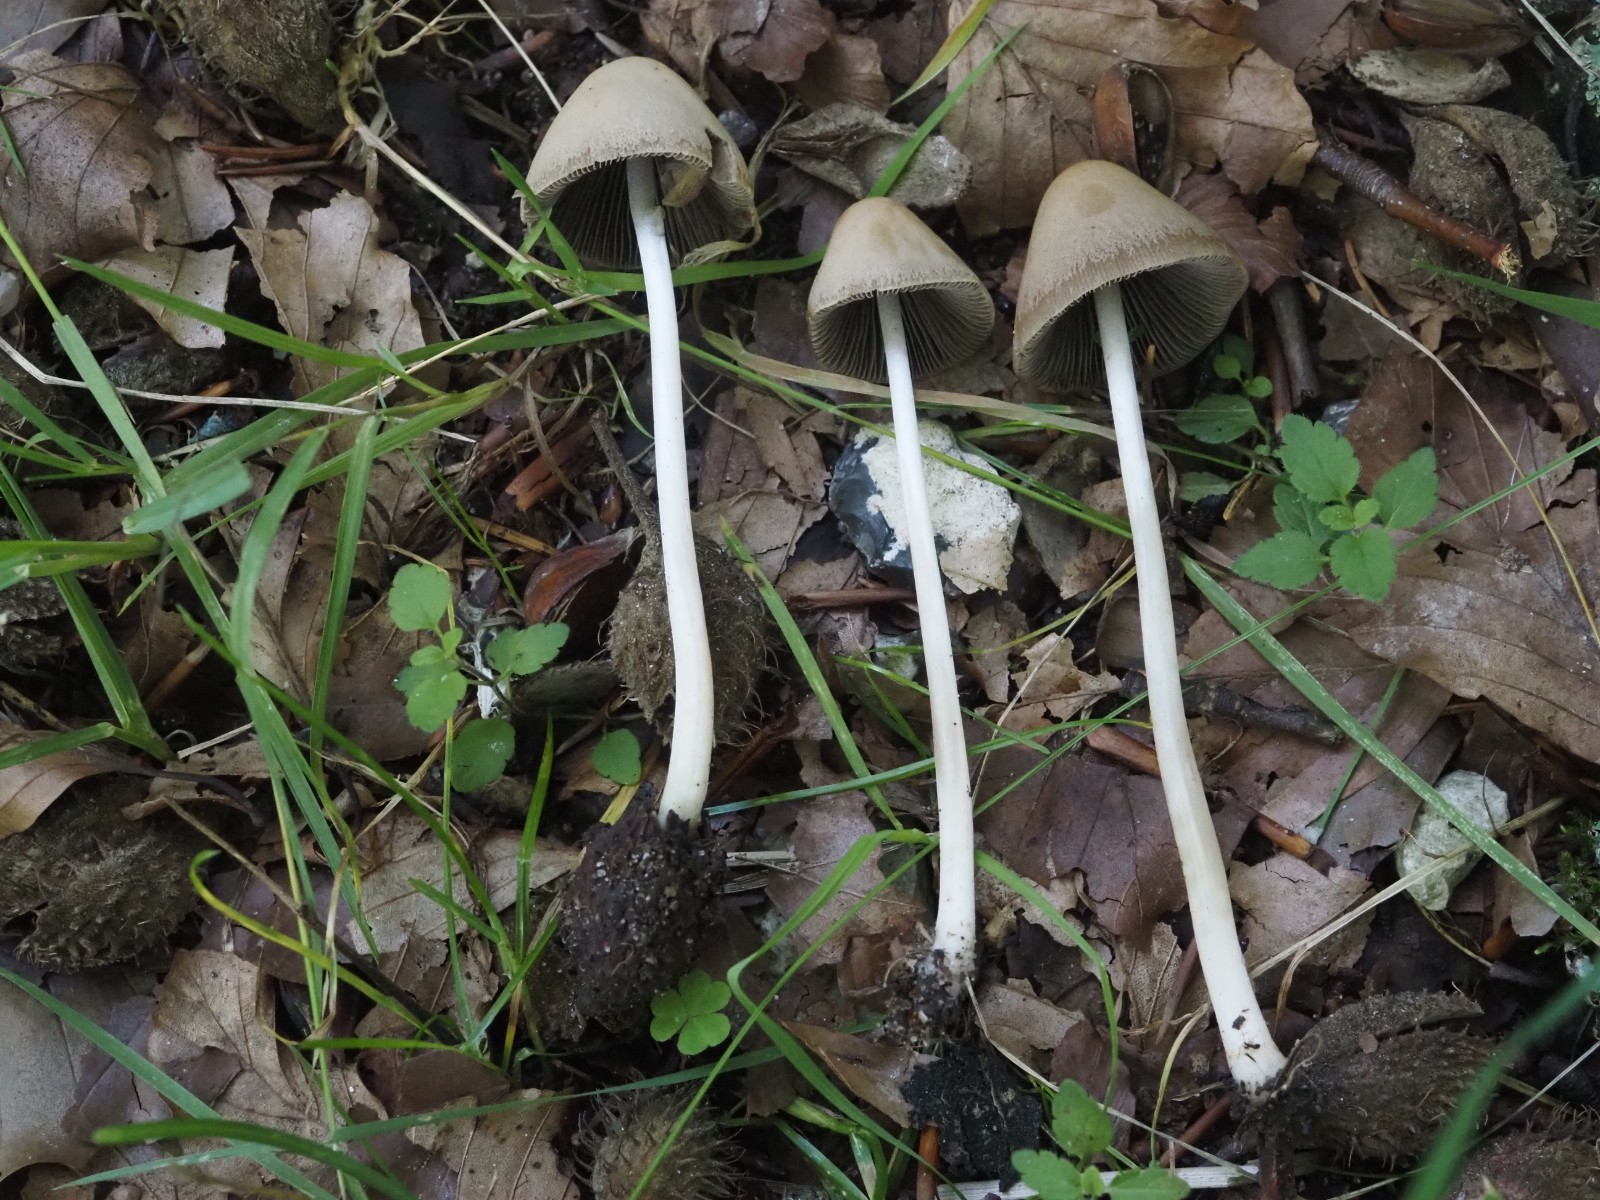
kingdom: Fungi
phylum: Basidiomycota
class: Agaricomycetes
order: Agaricales
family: Psathyrellaceae
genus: Parasola
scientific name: Parasola conopilea
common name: kegle-hjulhat
